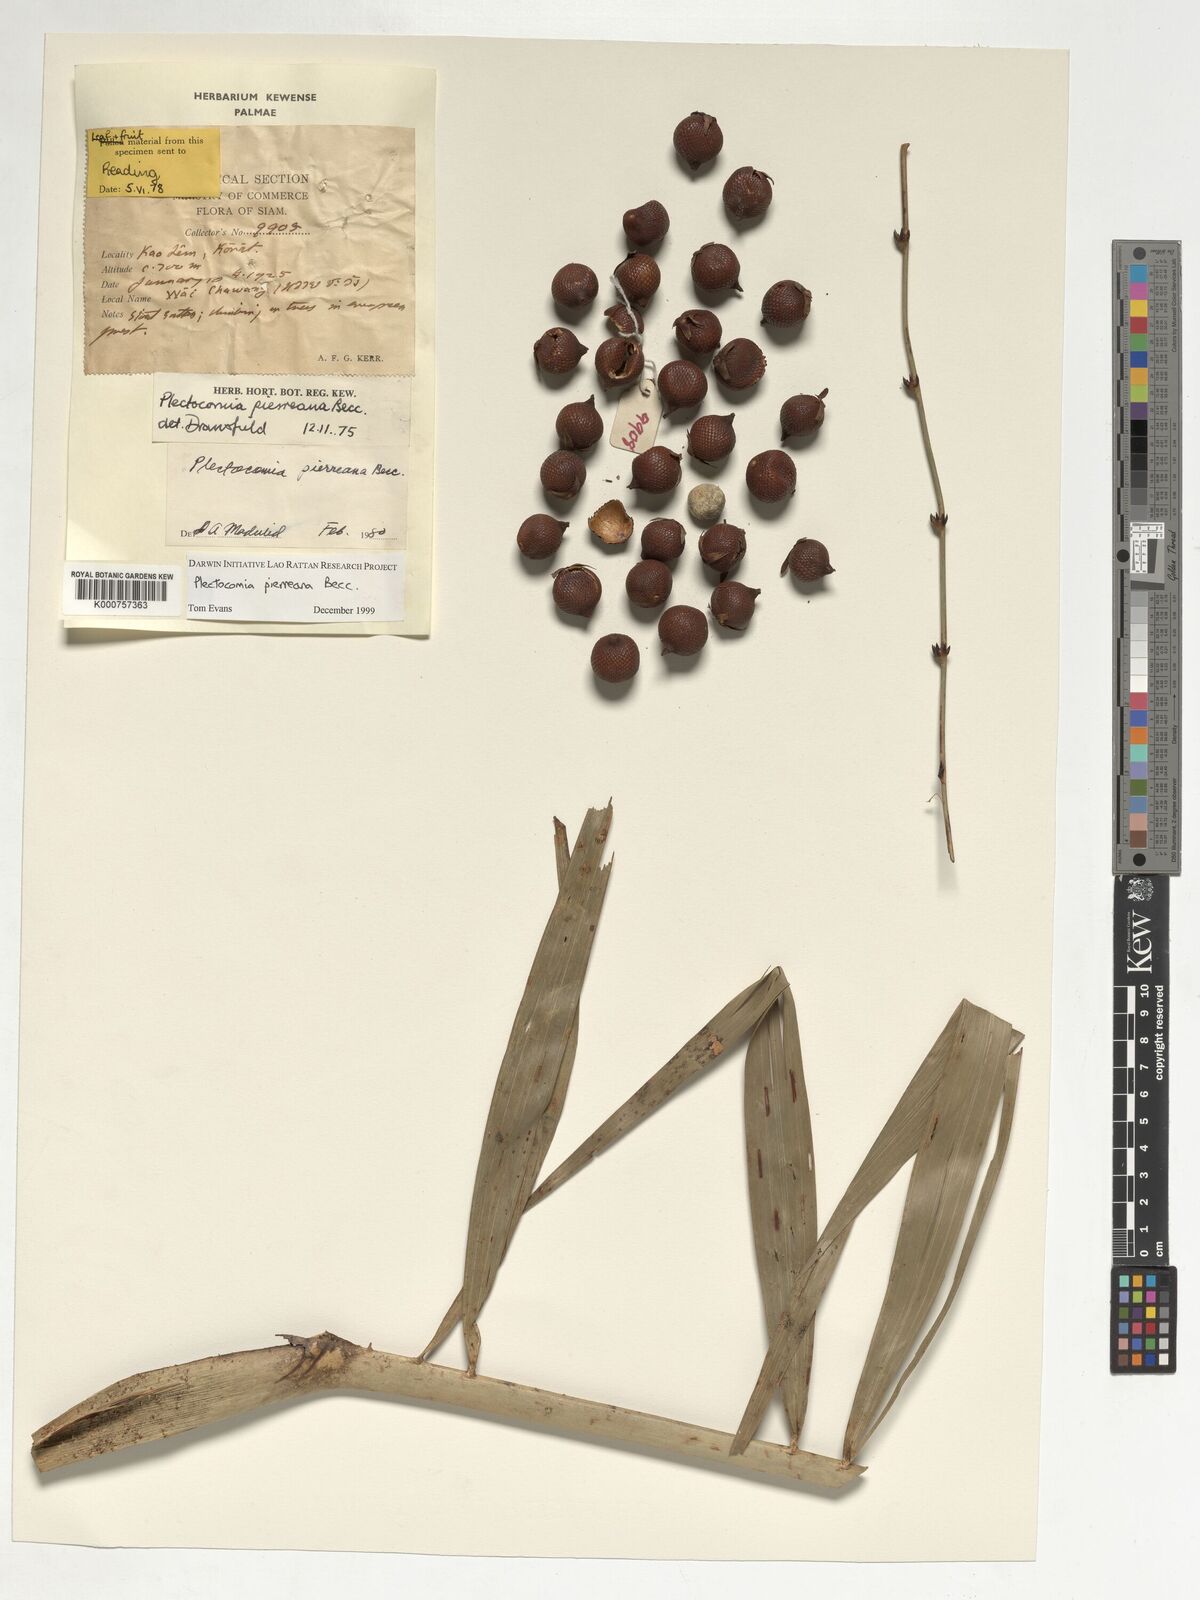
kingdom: Plantae
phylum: Tracheophyta
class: Liliopsida
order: Arecales
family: Arecaceae
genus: Plectocomia
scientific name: Plectocomia pierreana
